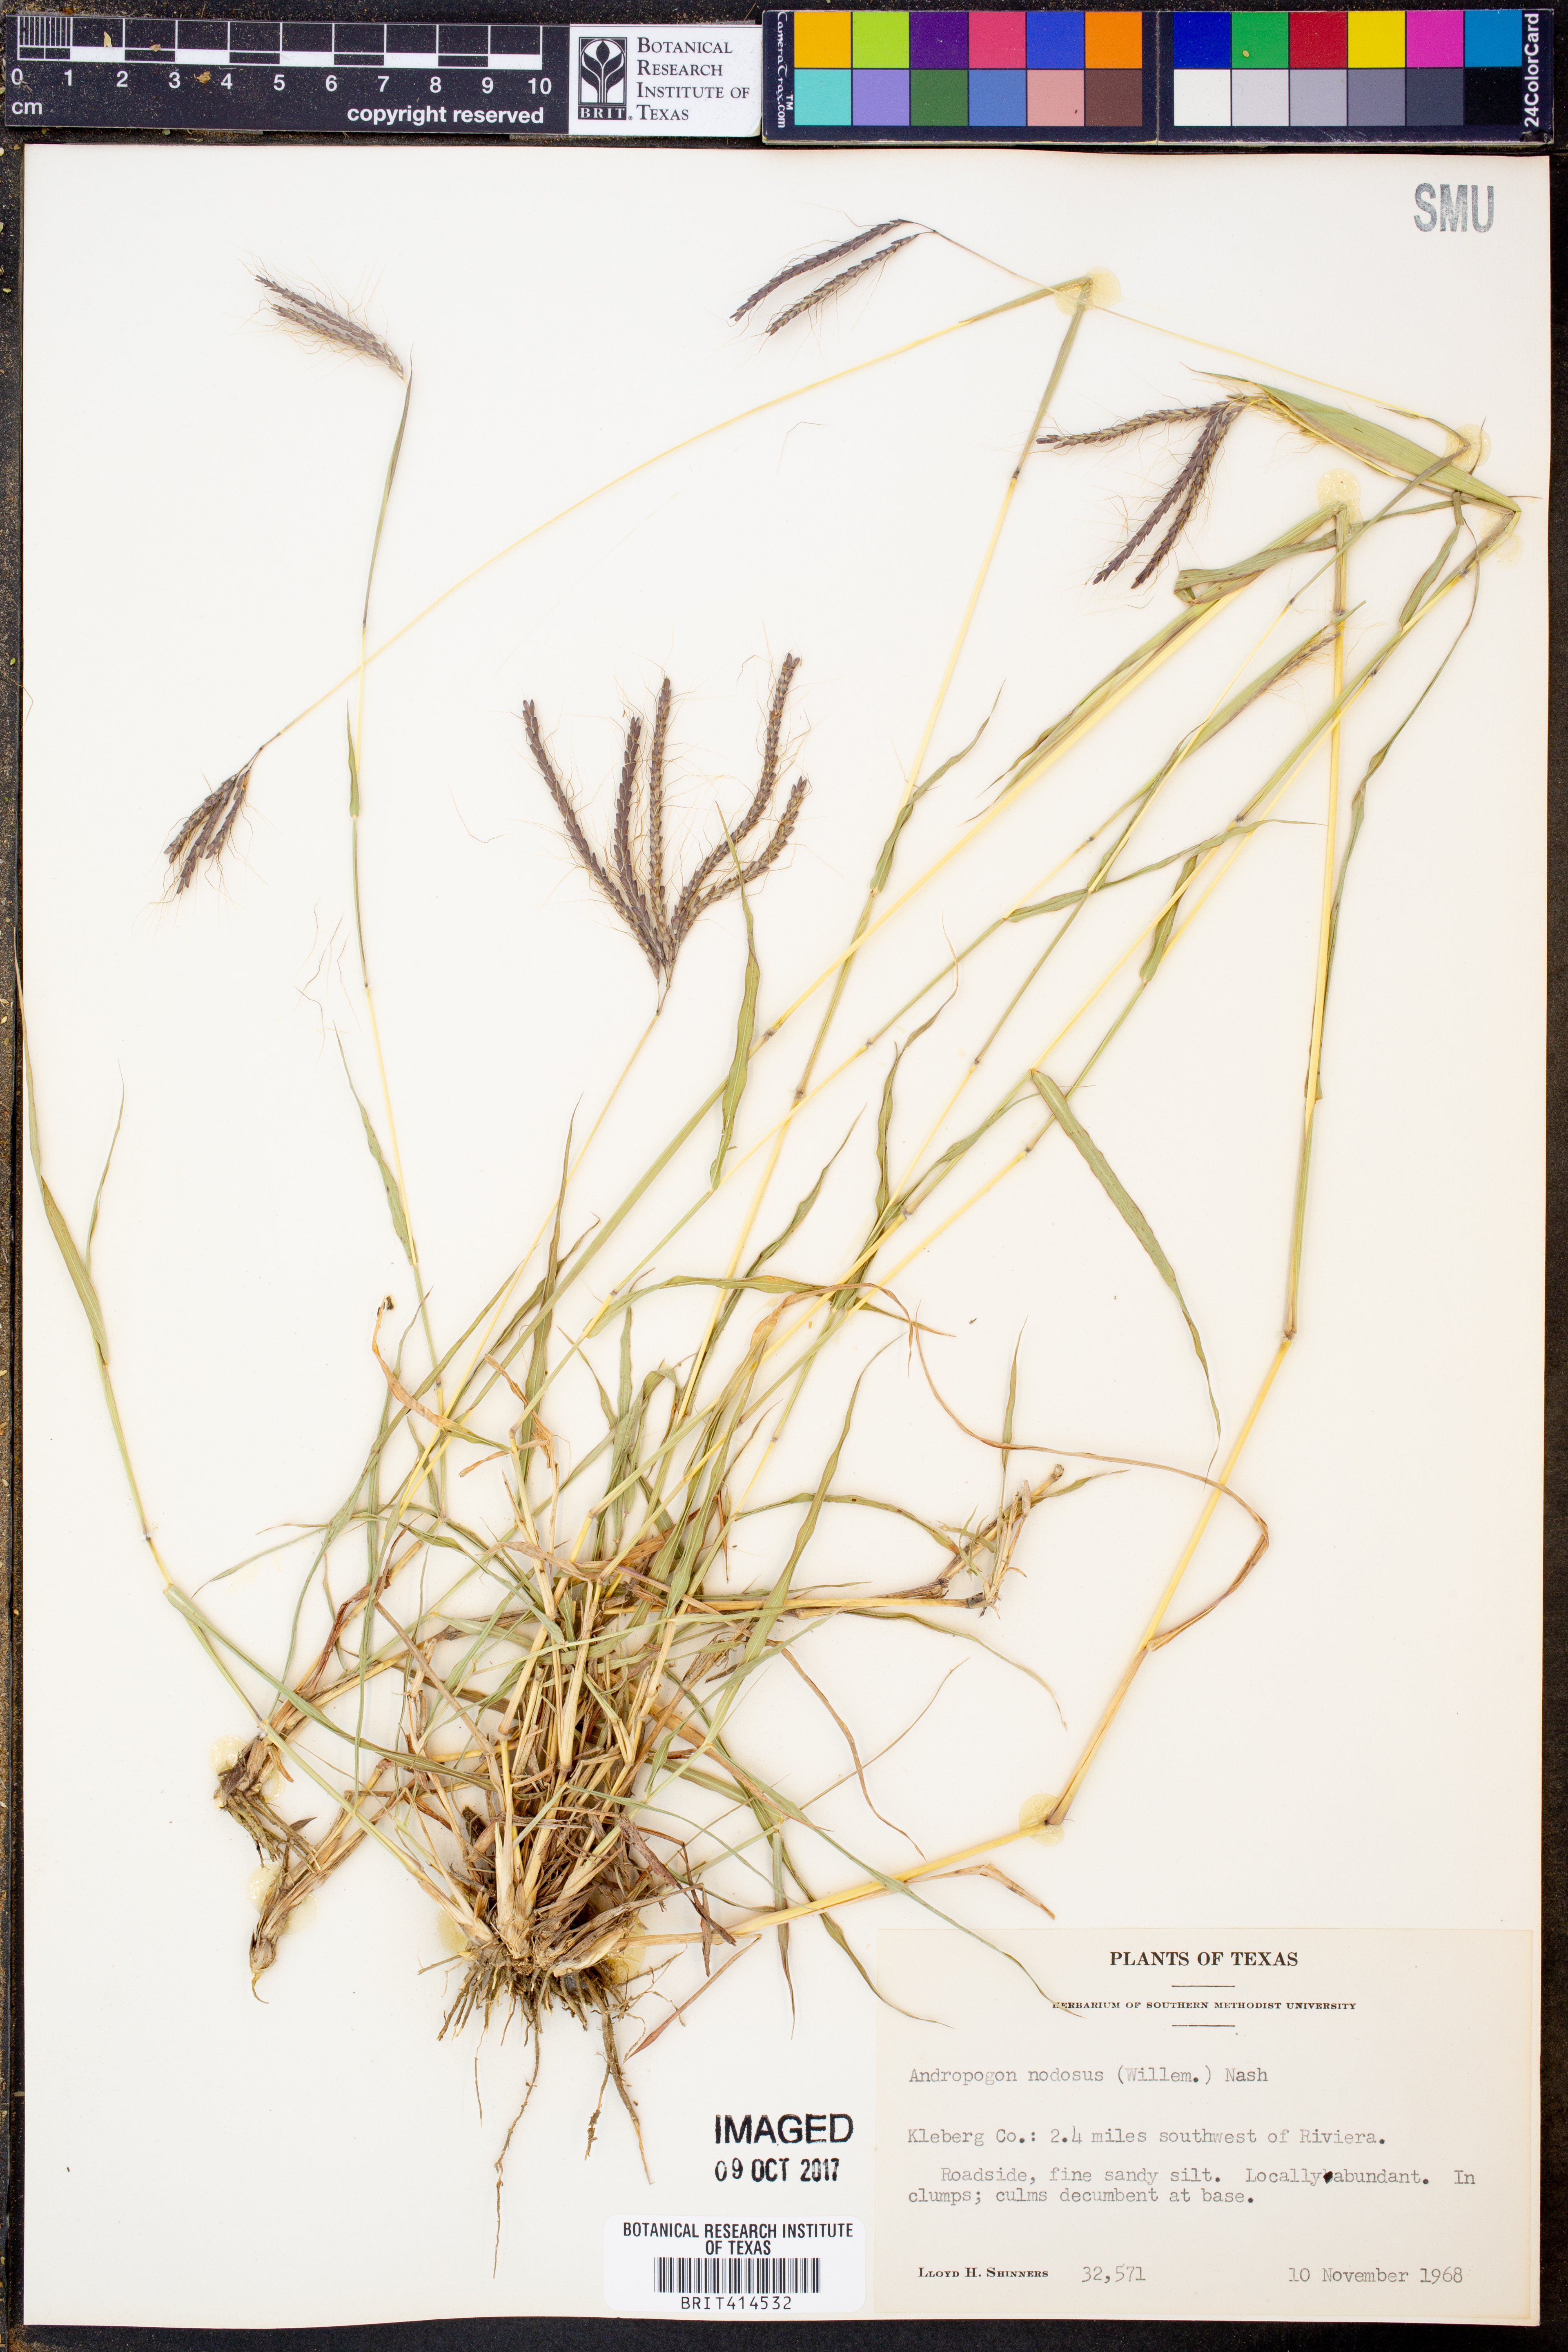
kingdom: Plantae
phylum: Tracheophyta
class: Liliopsida
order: Poales
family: Poaceae
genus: Dichanthium
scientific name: Dichanthium annulatum
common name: Kleberg's bluestem
